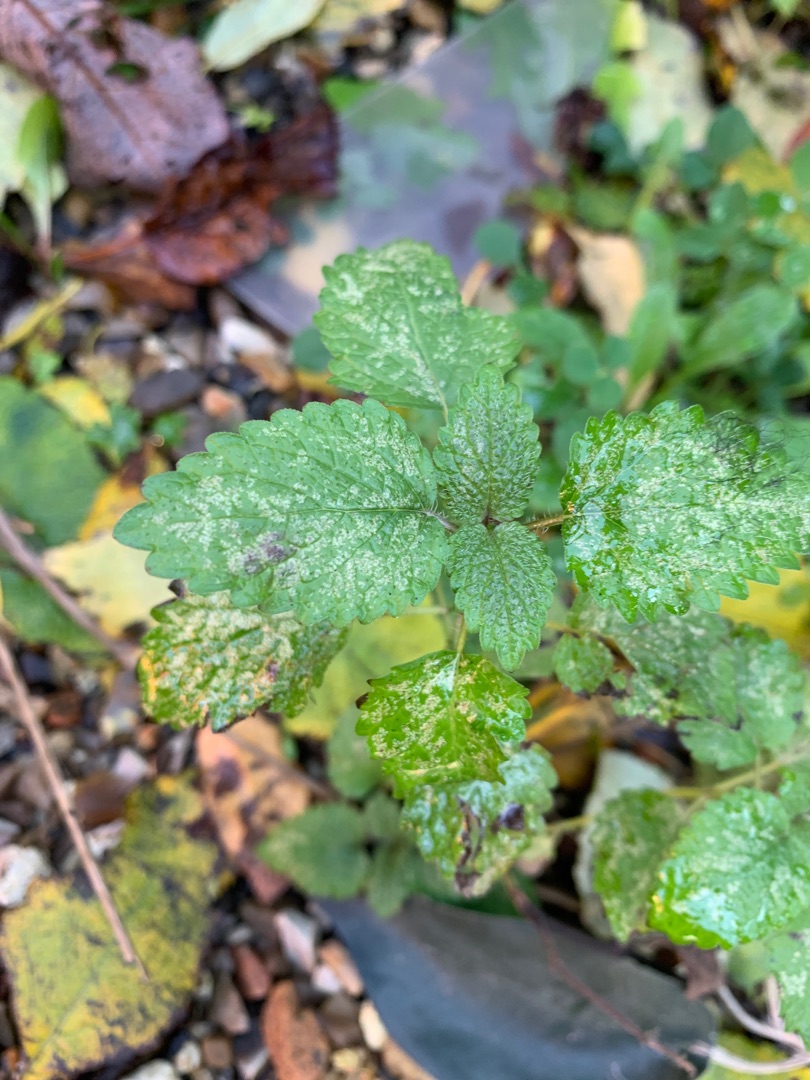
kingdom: Plantae
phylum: Tracheophyta
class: Magnoliopsida
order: Lamiales
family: Lamiaceae
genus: Lamium
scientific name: Lamium galeobdolon
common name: Guldnælde
